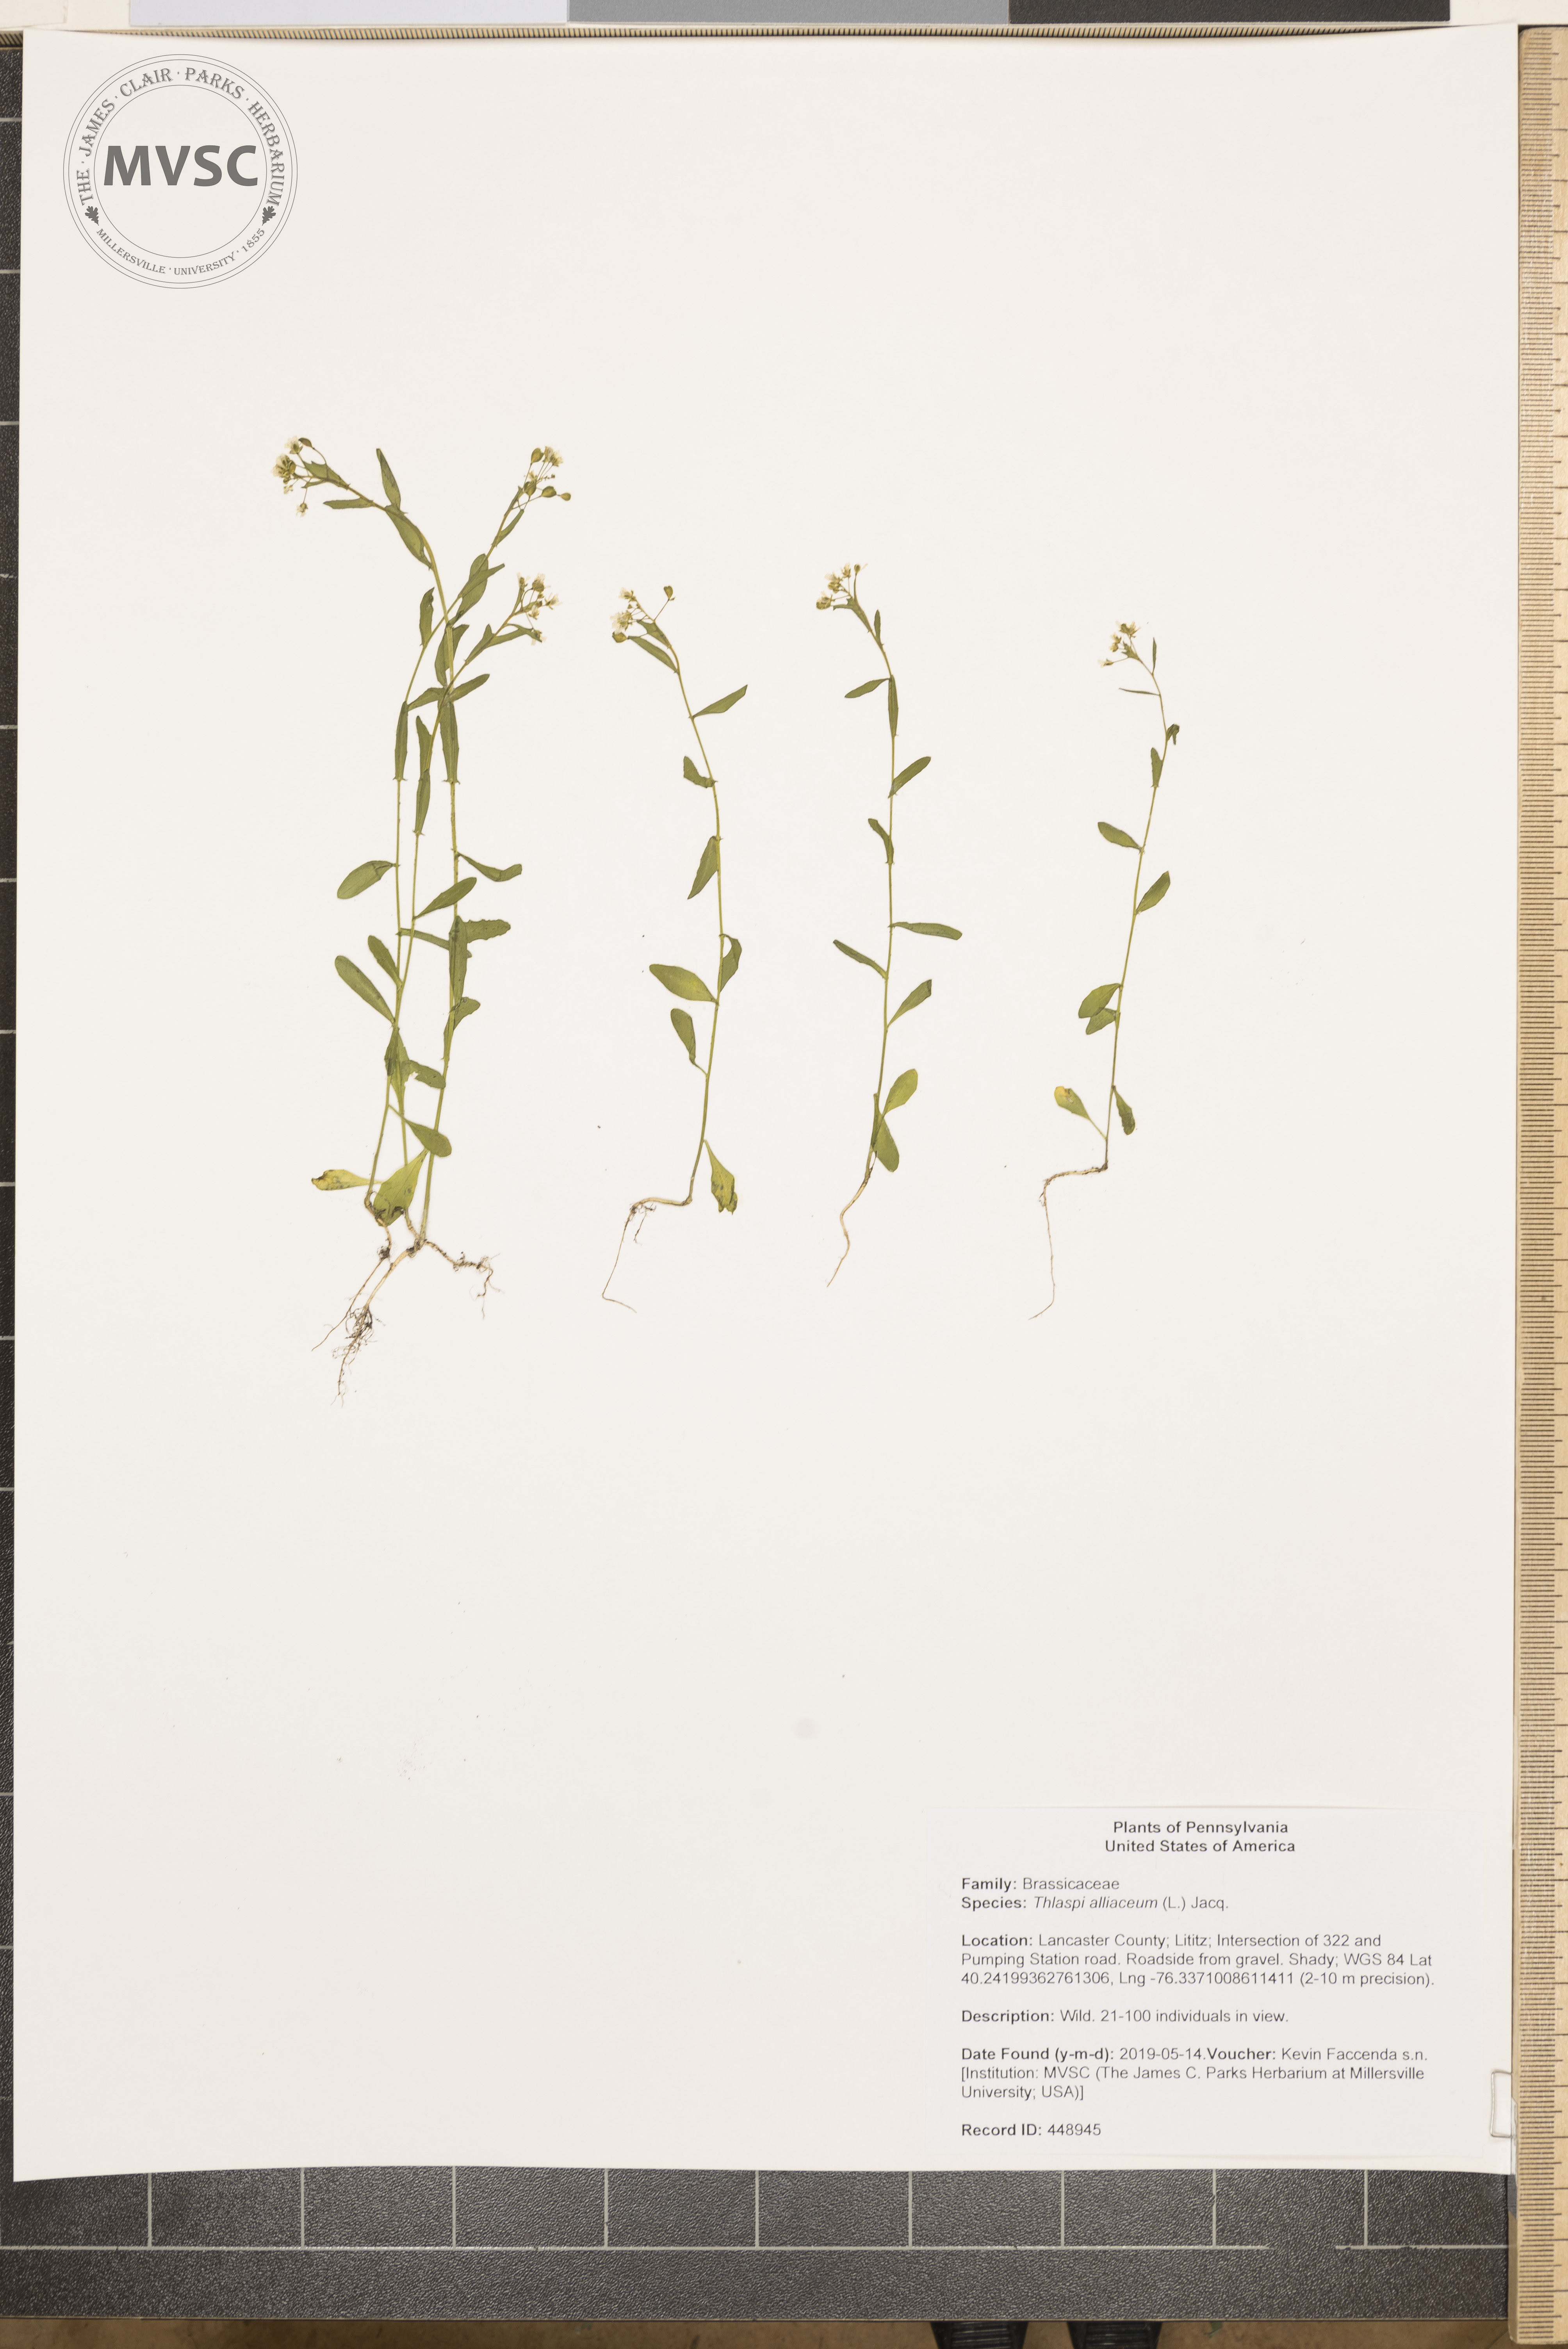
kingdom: Plantae
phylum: Tracheophyta
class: Magnoliopsida
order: Brassicales
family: Brassicaceae
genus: Mummenhoffia
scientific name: Mummenhoffia alliacea
